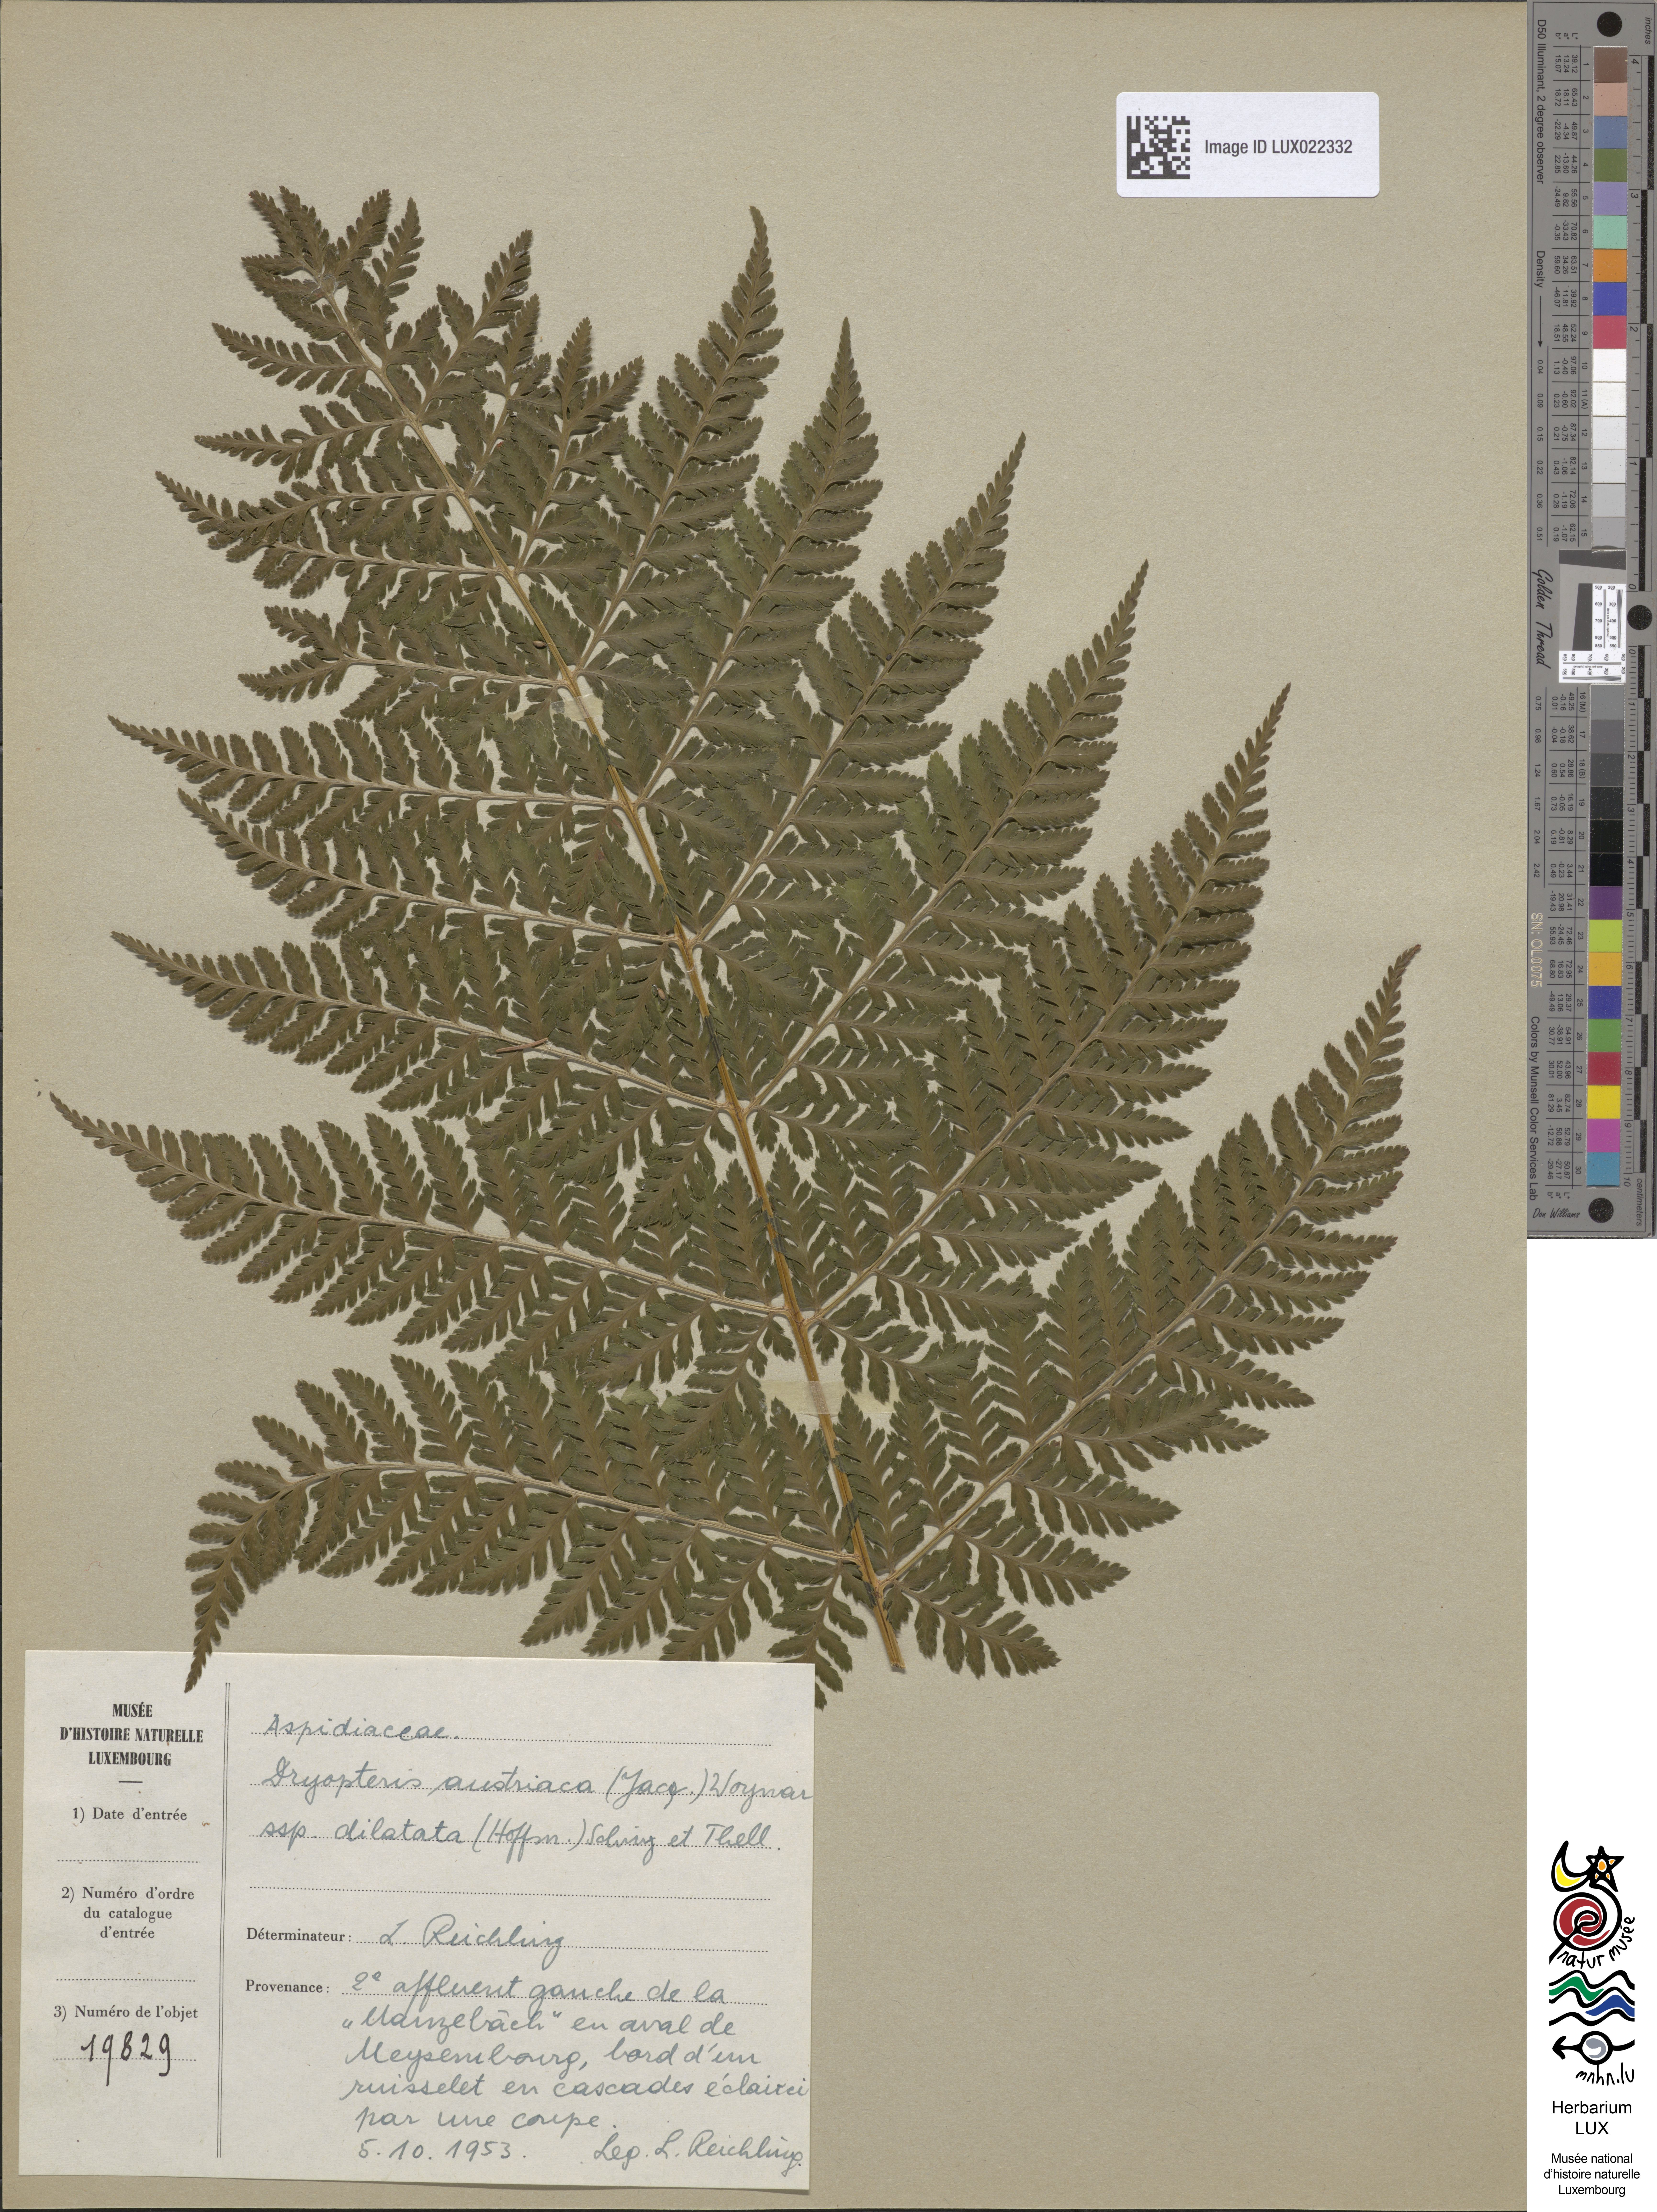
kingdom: Plantae
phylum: Tracheophyta
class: Polypodiopsida
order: Polypodiales
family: Dryopteridaceae
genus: Dryopteris
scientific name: Dryopteris dilatata
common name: Broad buckler-fern
